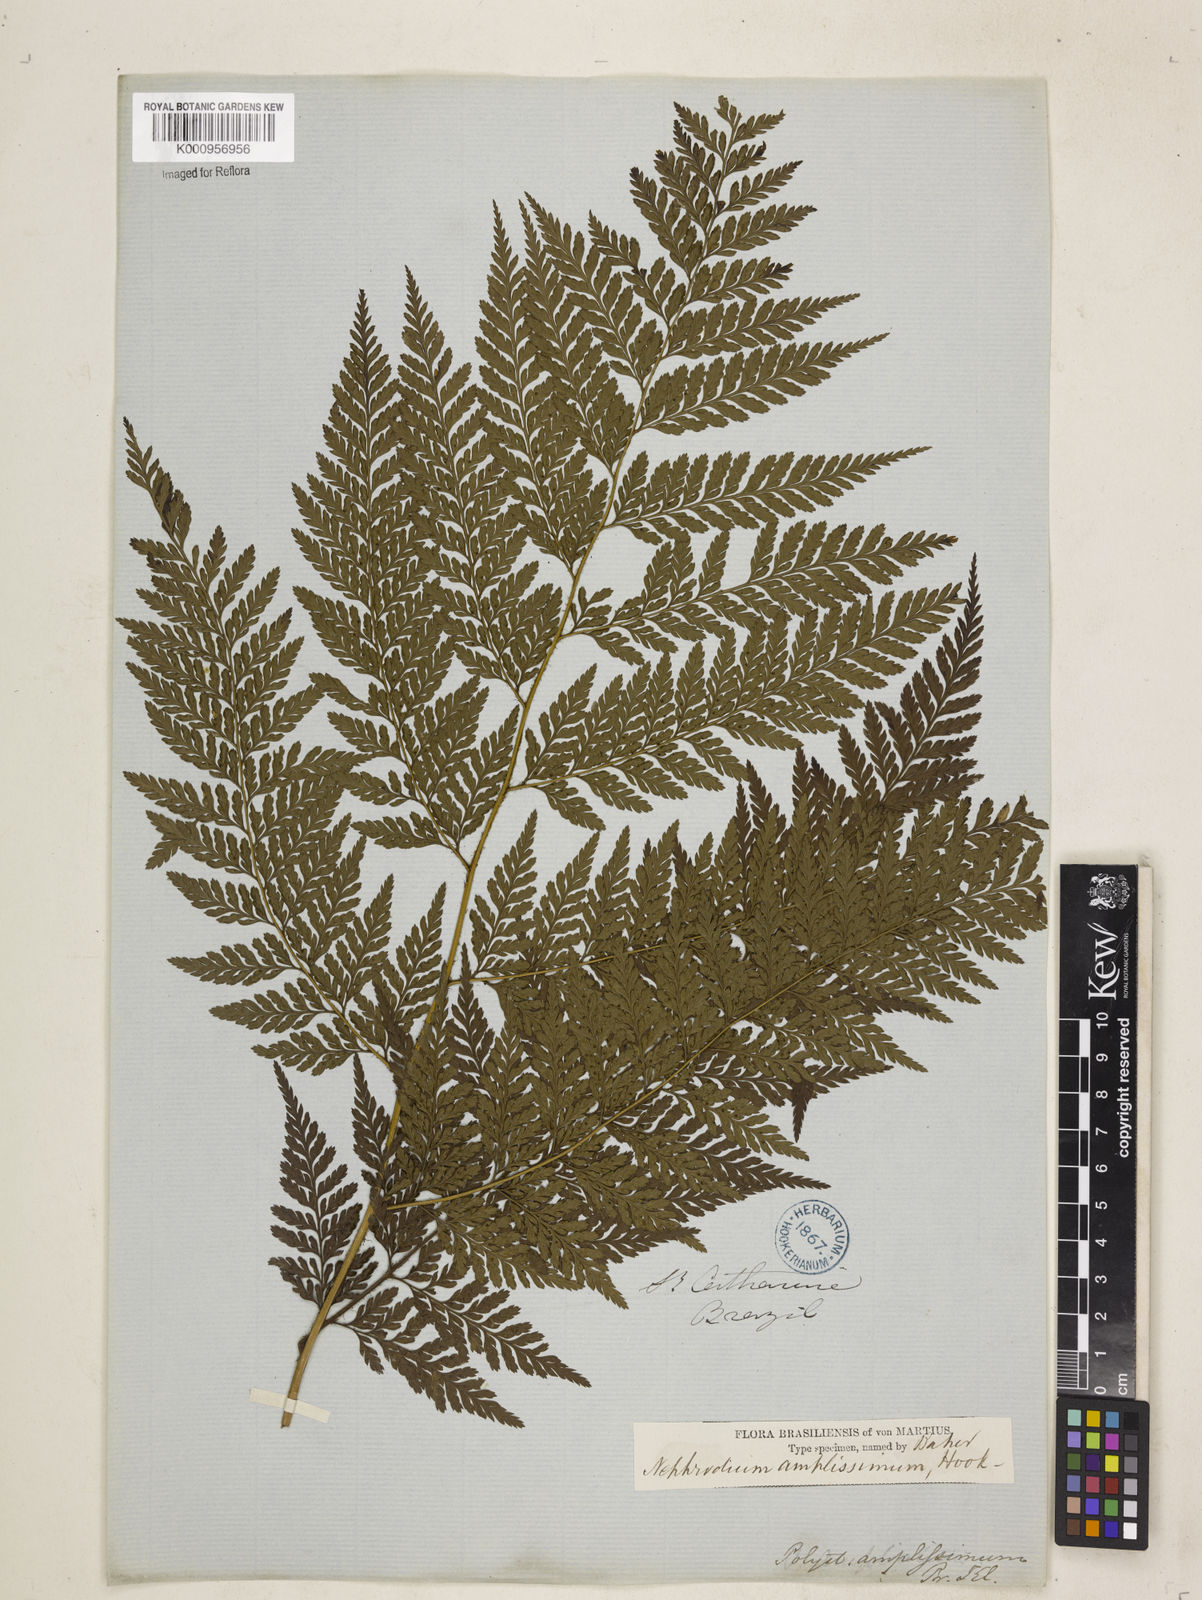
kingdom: Plantae
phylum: Tracheophyta
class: Polypodiopsida
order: Polypodiales
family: Dryopteridaceae
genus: Lastreopsis
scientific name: Lastreopsis amplissima
